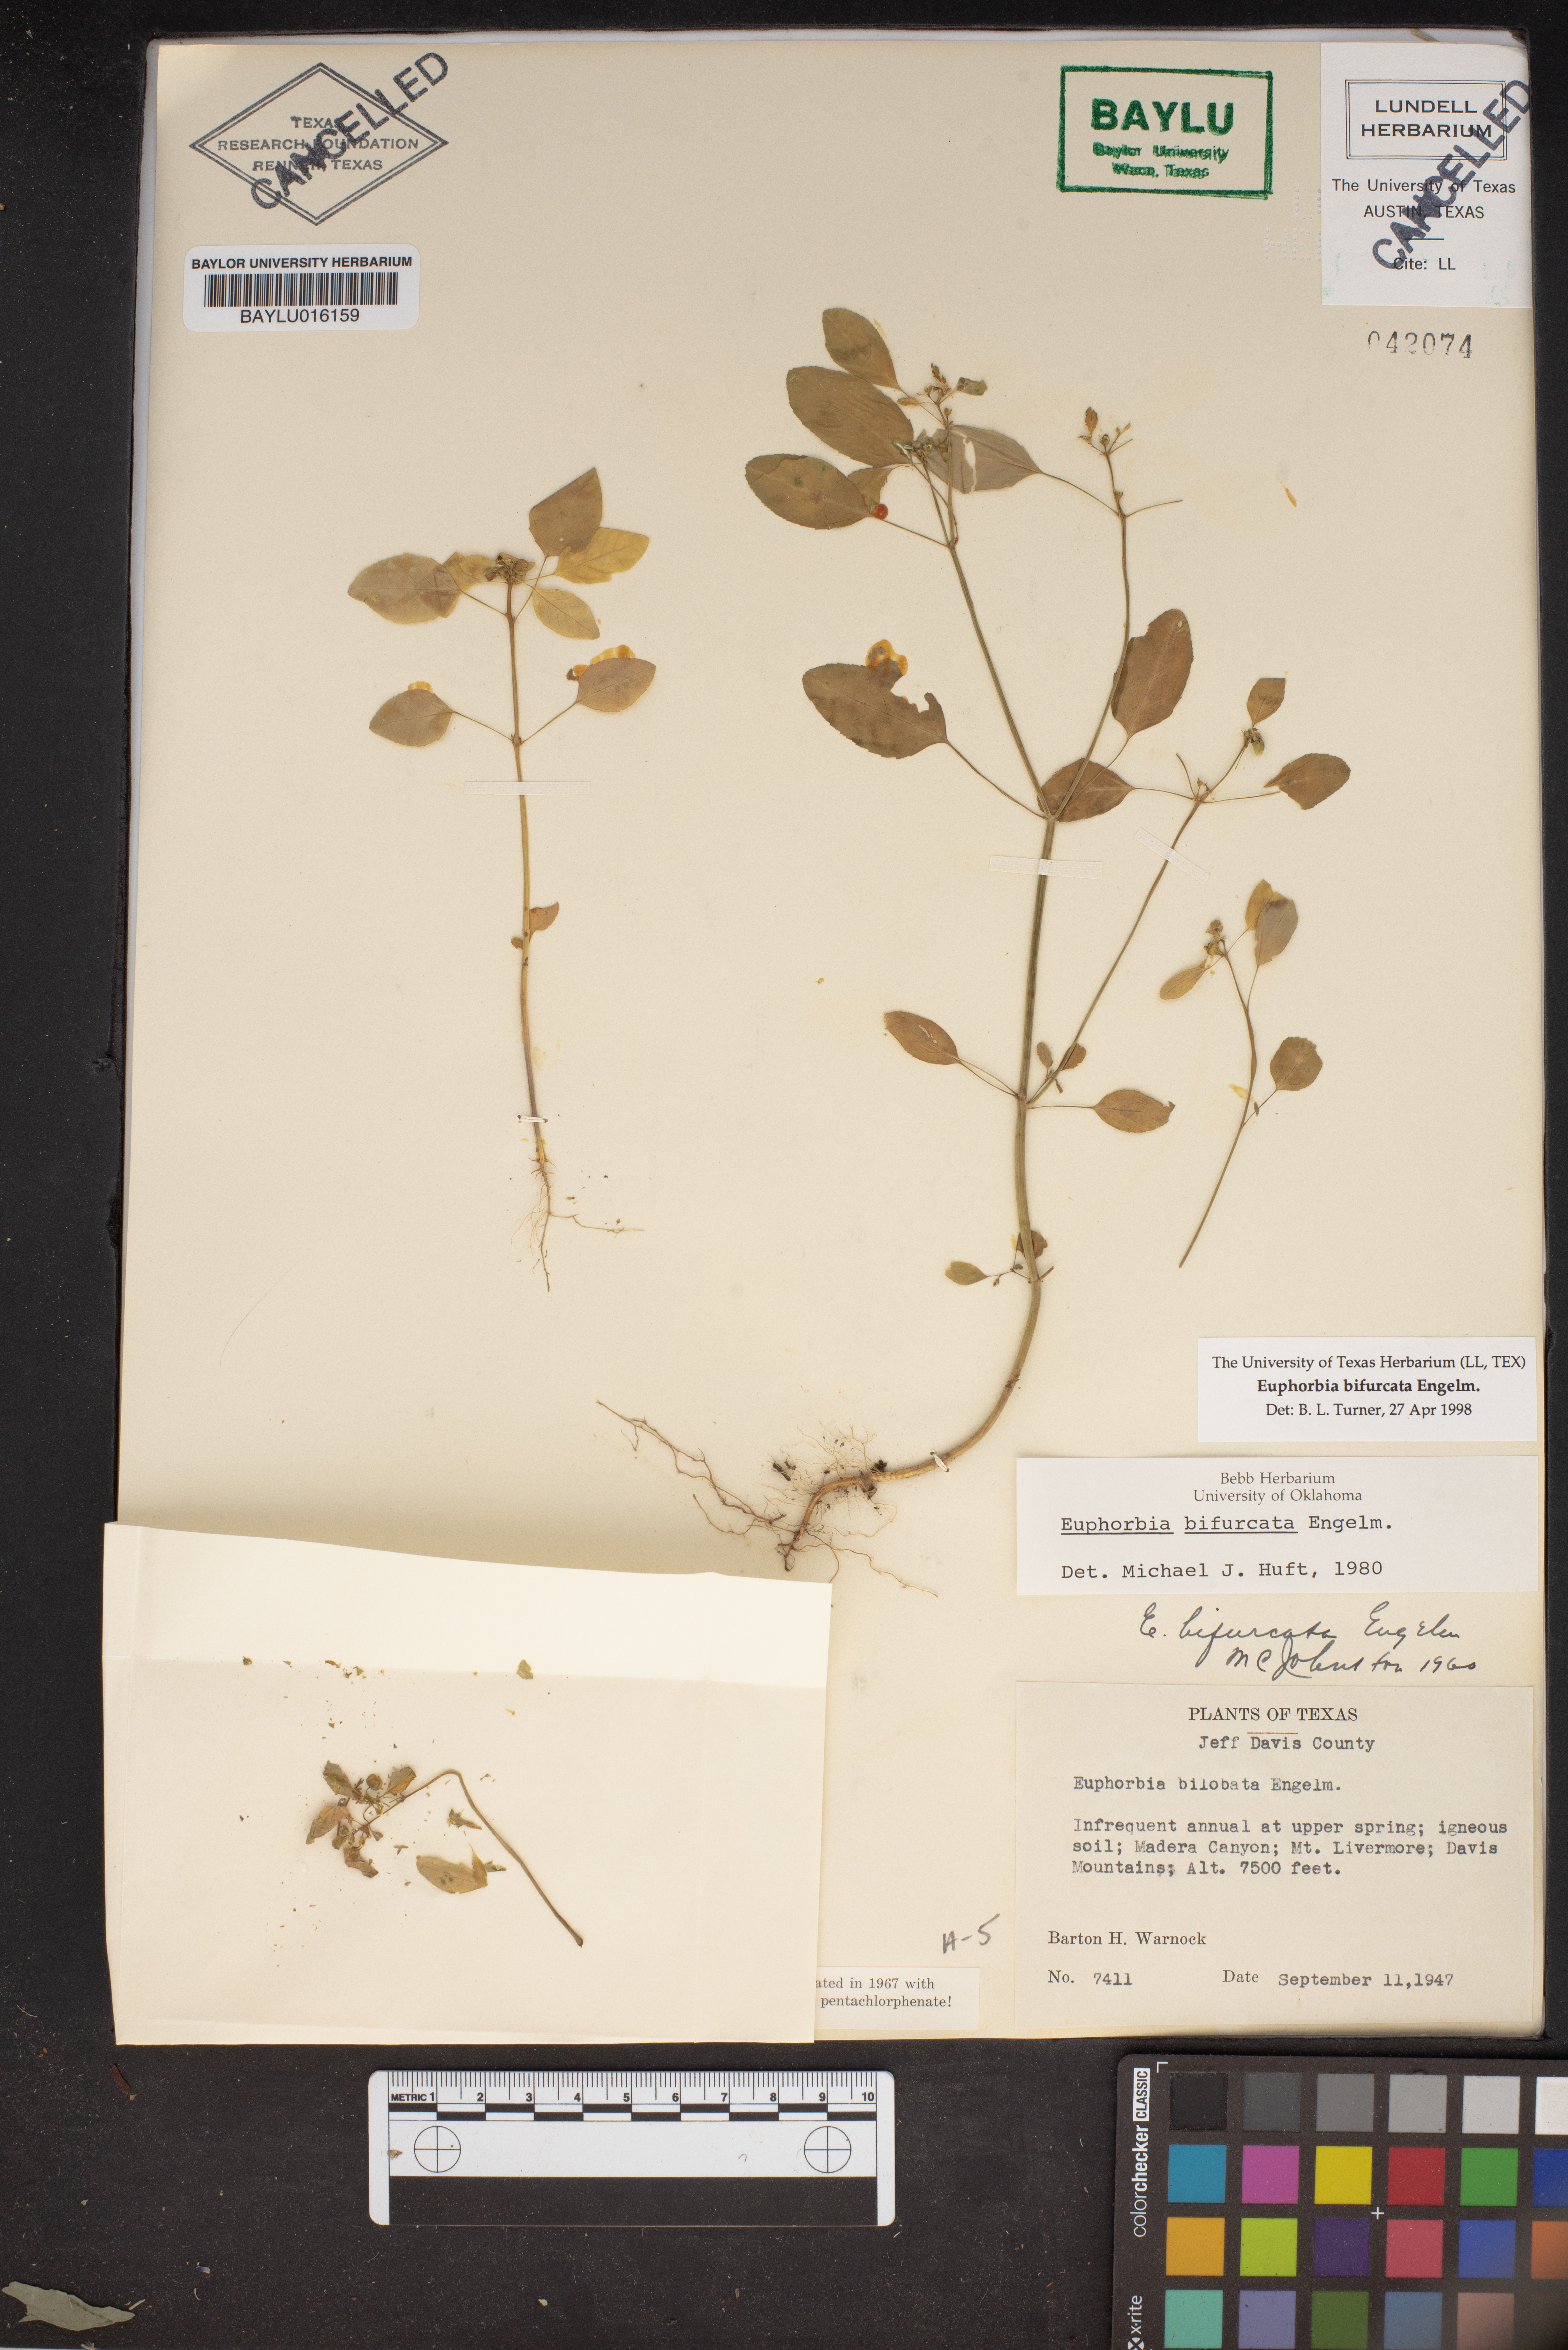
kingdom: Plantae
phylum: Tracheophyta
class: Magnoliopsida
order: Malpighiales
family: Euphorbiaceae
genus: Euphorbia
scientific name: Euphorbia bifurcata
